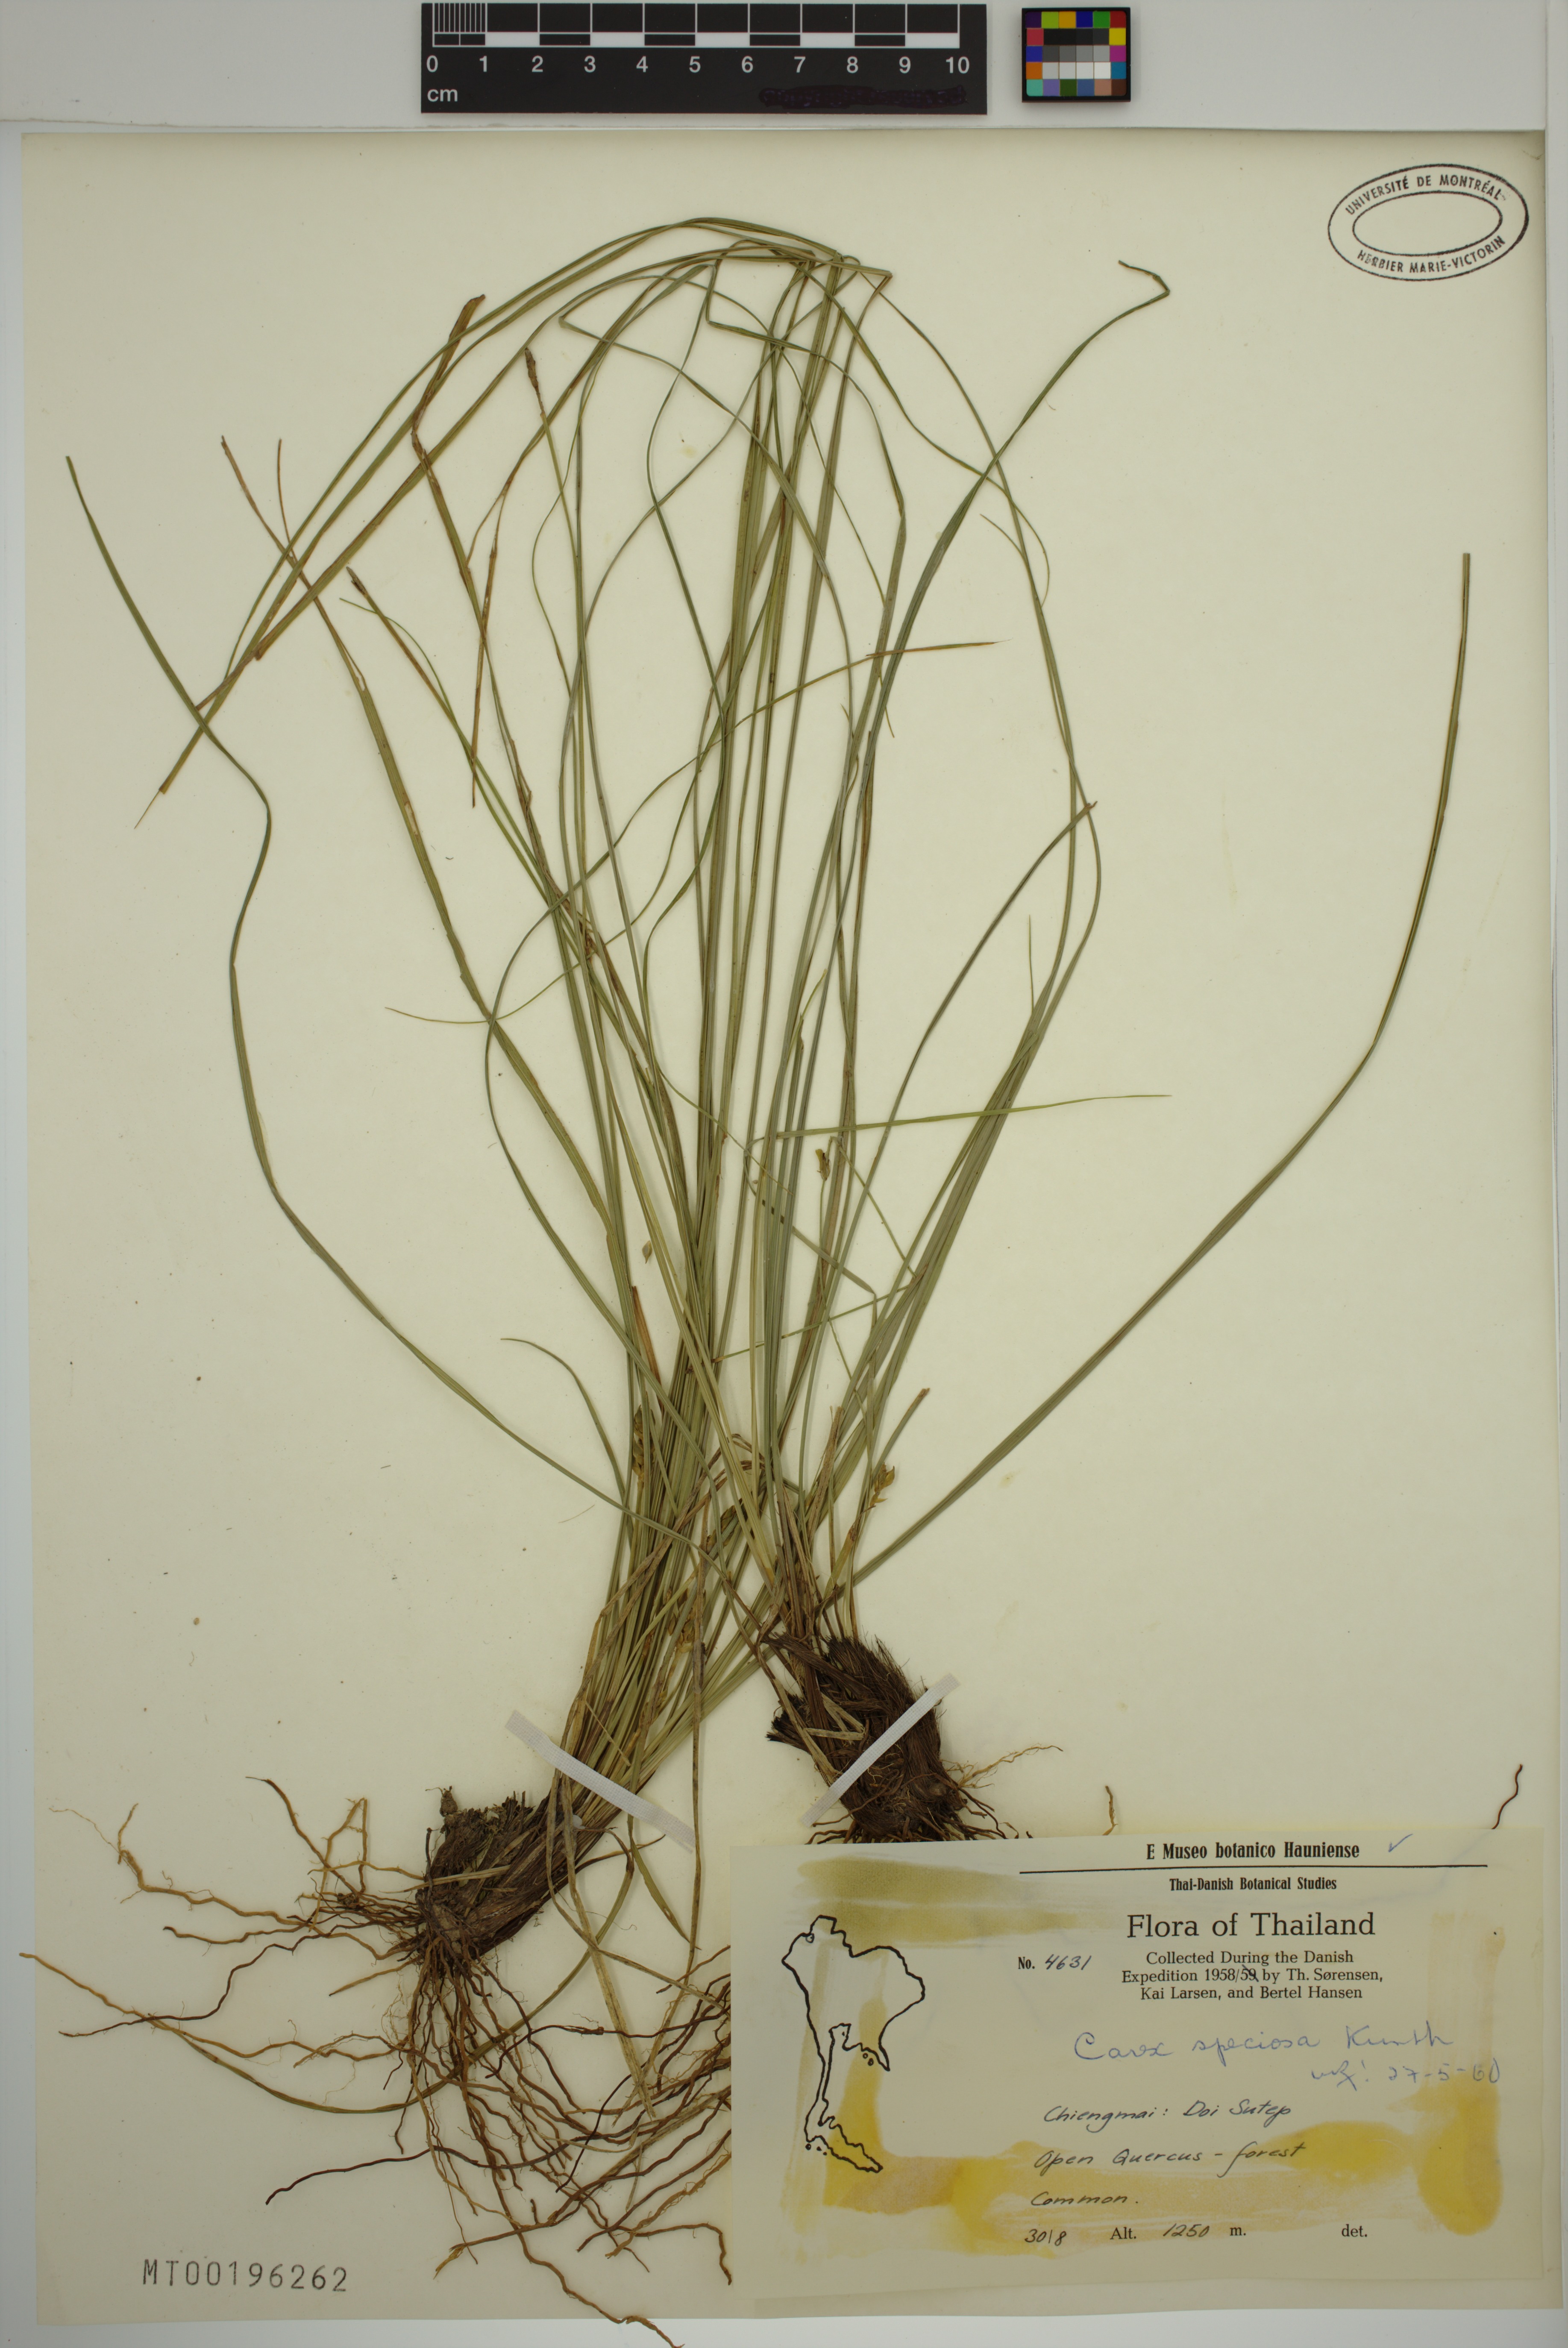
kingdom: Plantae
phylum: Tracheophyta
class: Liliopsida
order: Poales
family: Cyperaceae
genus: Carex
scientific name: Carex speciosa
